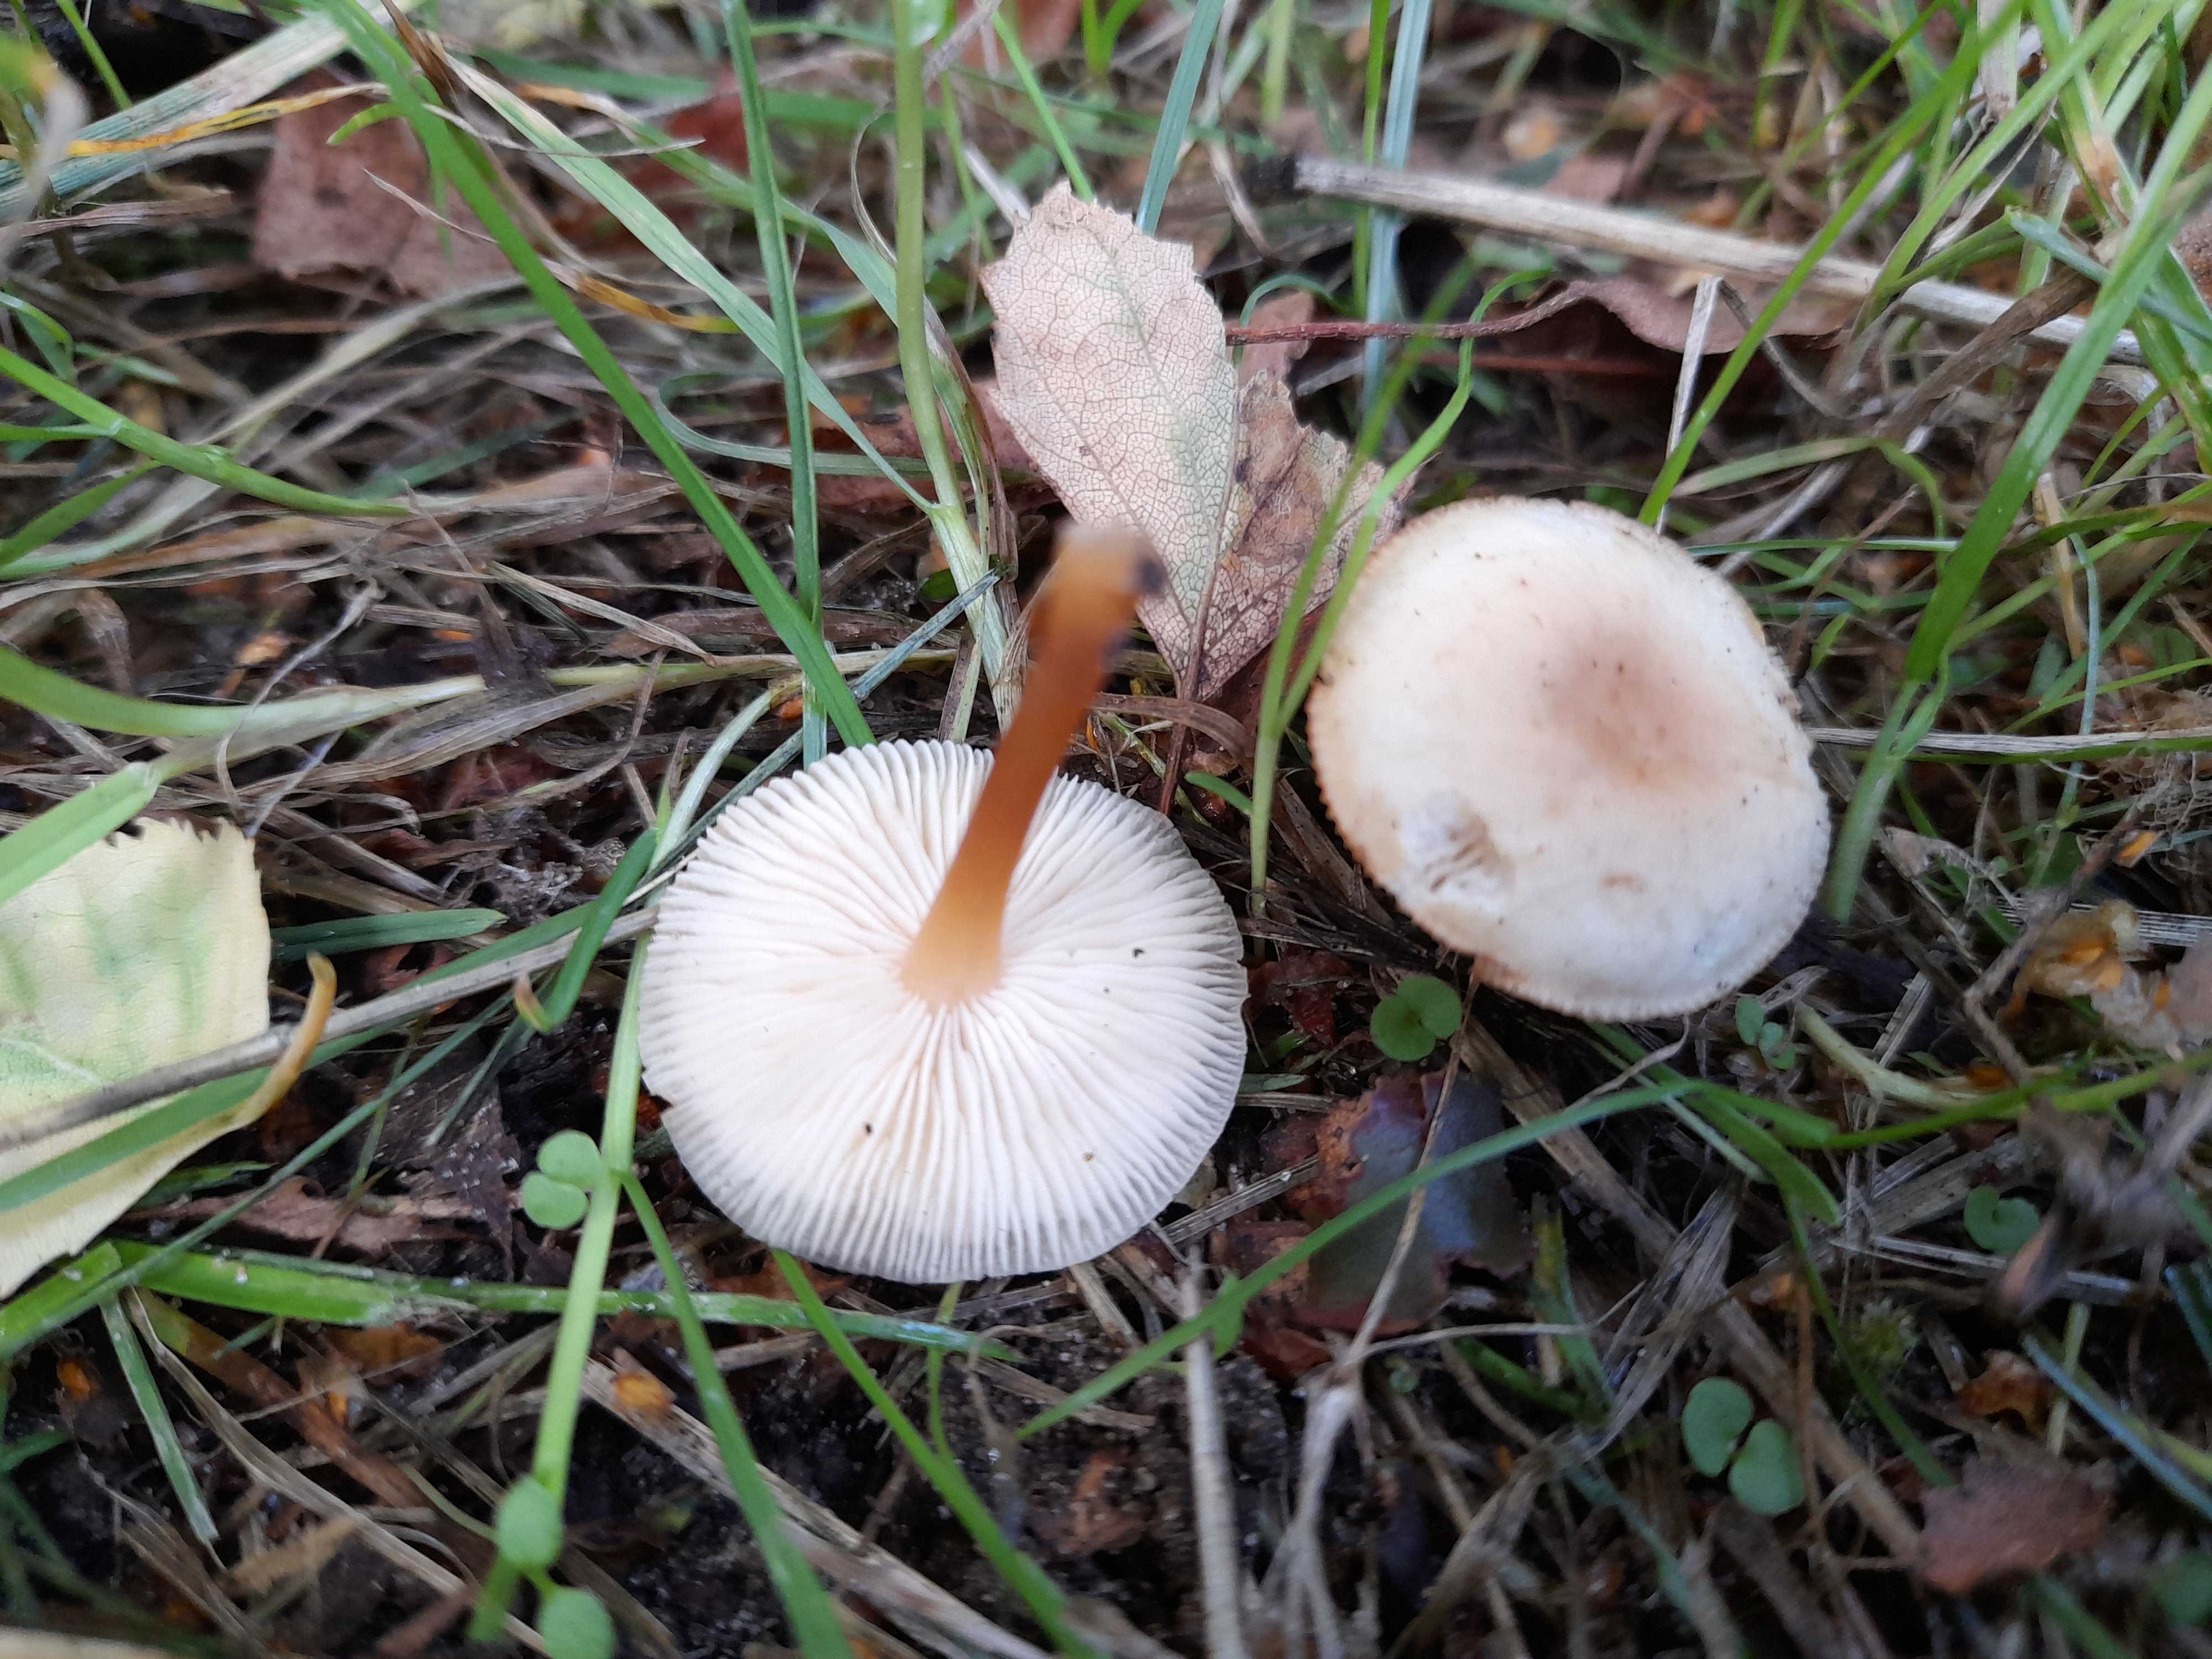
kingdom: Fungi
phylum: Basidiomycota
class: Agaricomycetes
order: Agaricales
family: Omphalotaceae
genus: Gymnopus
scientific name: Gymnopus dryophilus
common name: løv-fladhat
